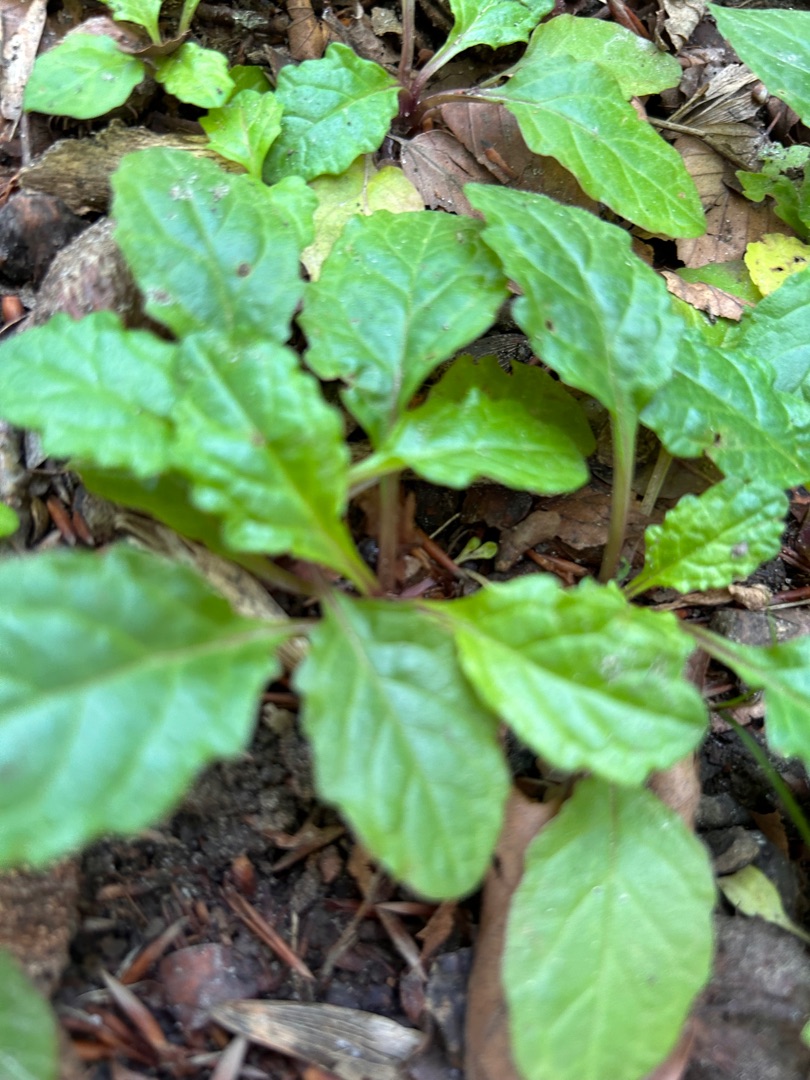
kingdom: Plantae
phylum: Tracheophyta
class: Magnoliopsida
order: Lamiales
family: Lamiaceae
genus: Ajuga
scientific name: Ajuga reptans
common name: Krybende læbeløs
